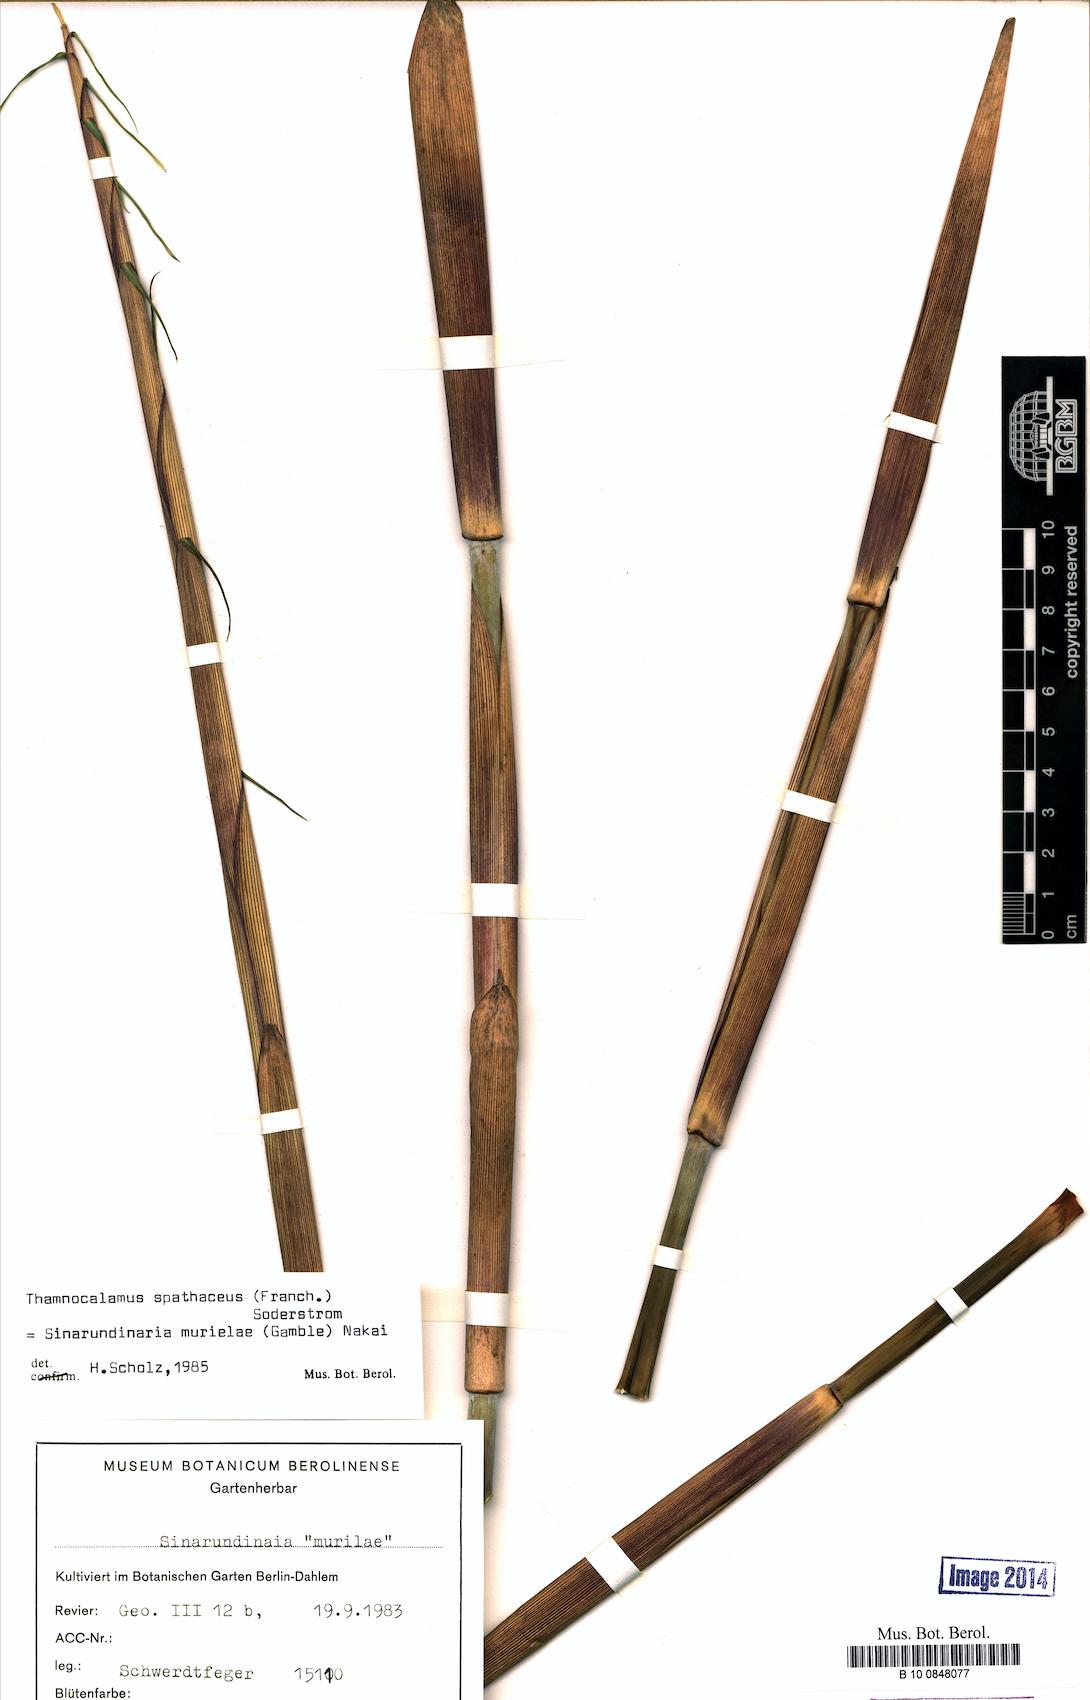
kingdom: Plantae
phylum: Tracheophyta
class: Liliopsida
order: Poales
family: Poaceae
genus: Fargesia
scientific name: Fargesia spathacea
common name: Chinese fountain-bamboo
